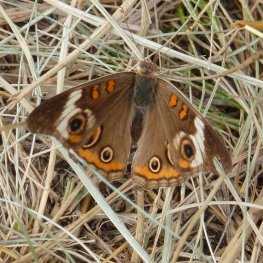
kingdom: Animalia
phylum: Arthropoda
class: Insecta
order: Lepidoptera
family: Nymphalidae
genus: Junonia
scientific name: Junonia coenia
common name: Common Buckeye
